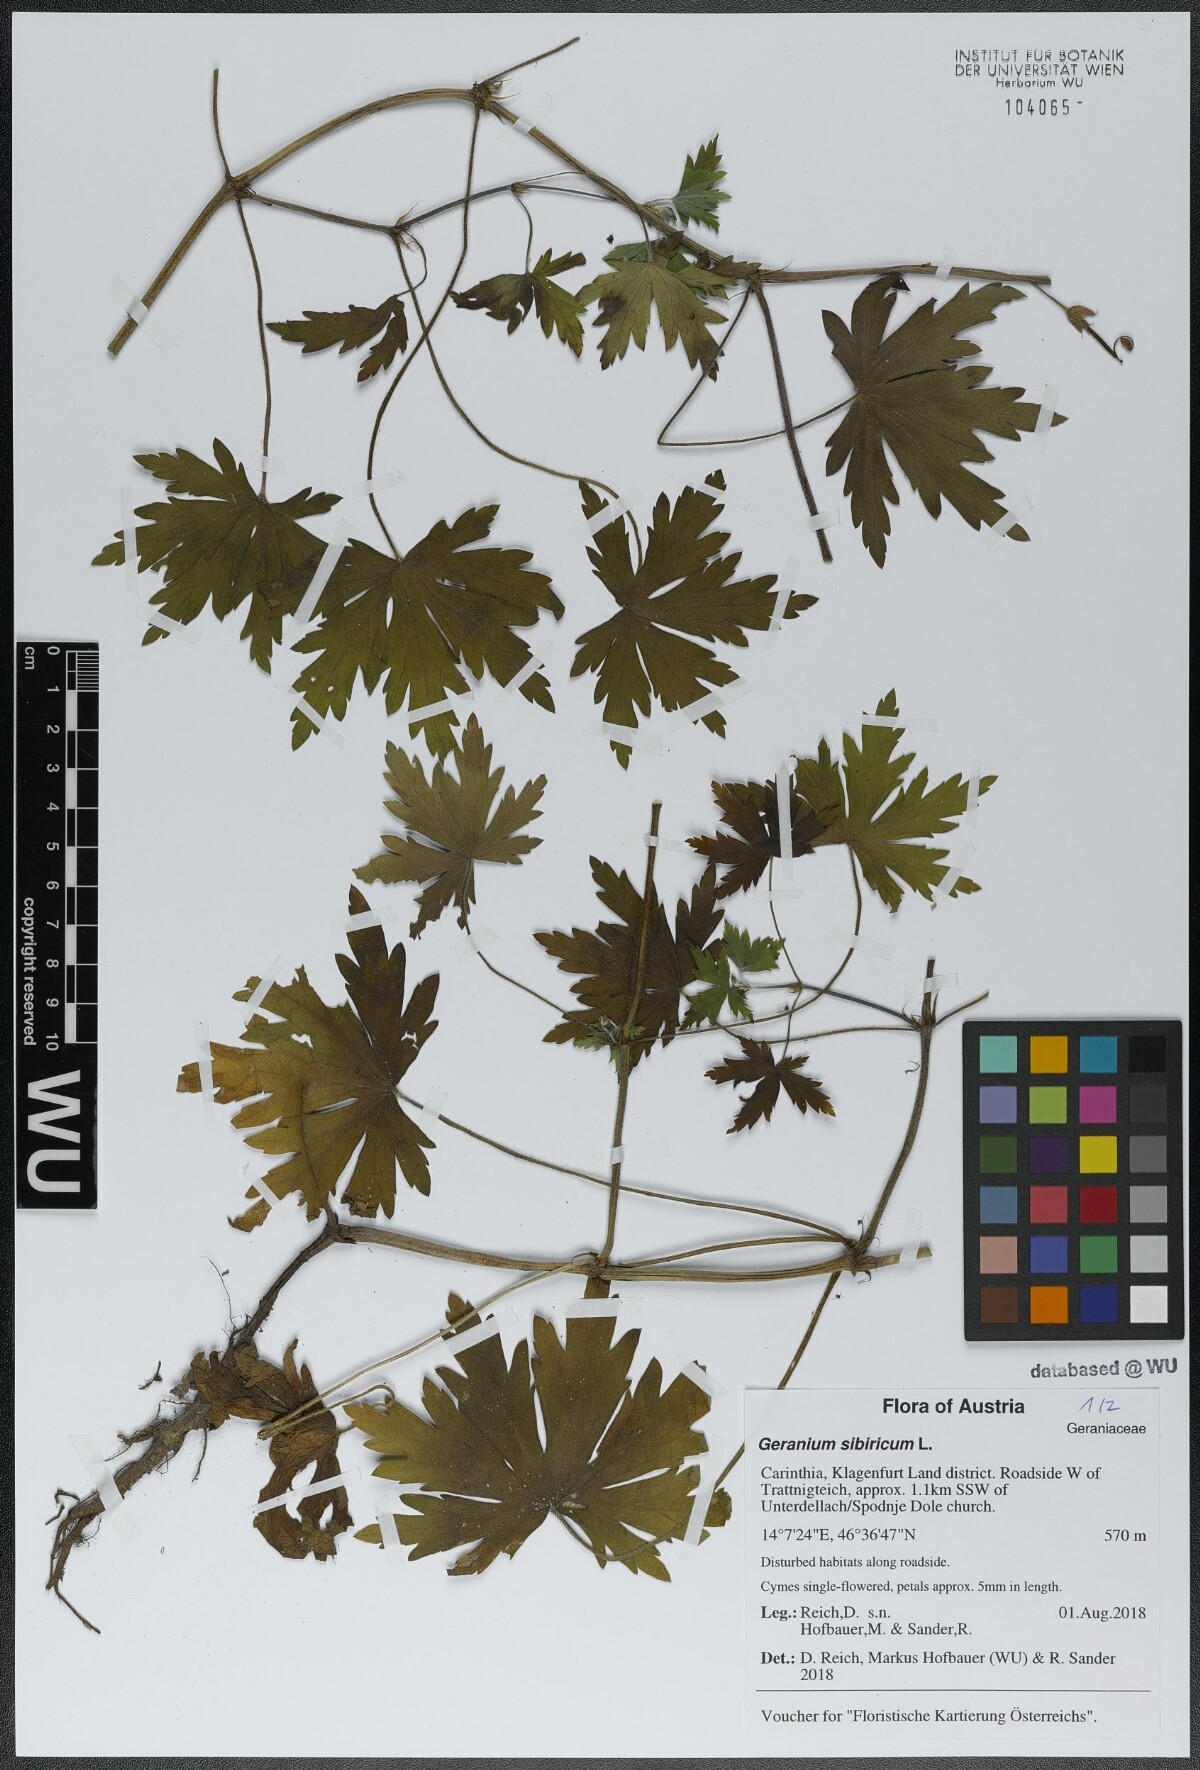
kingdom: Plantae
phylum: Tracheophyta
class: Magnoliopsida
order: Geraniales
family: Geraniaceae
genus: Geranium
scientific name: Geranium sibiricum
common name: Siberian crane's-bill
